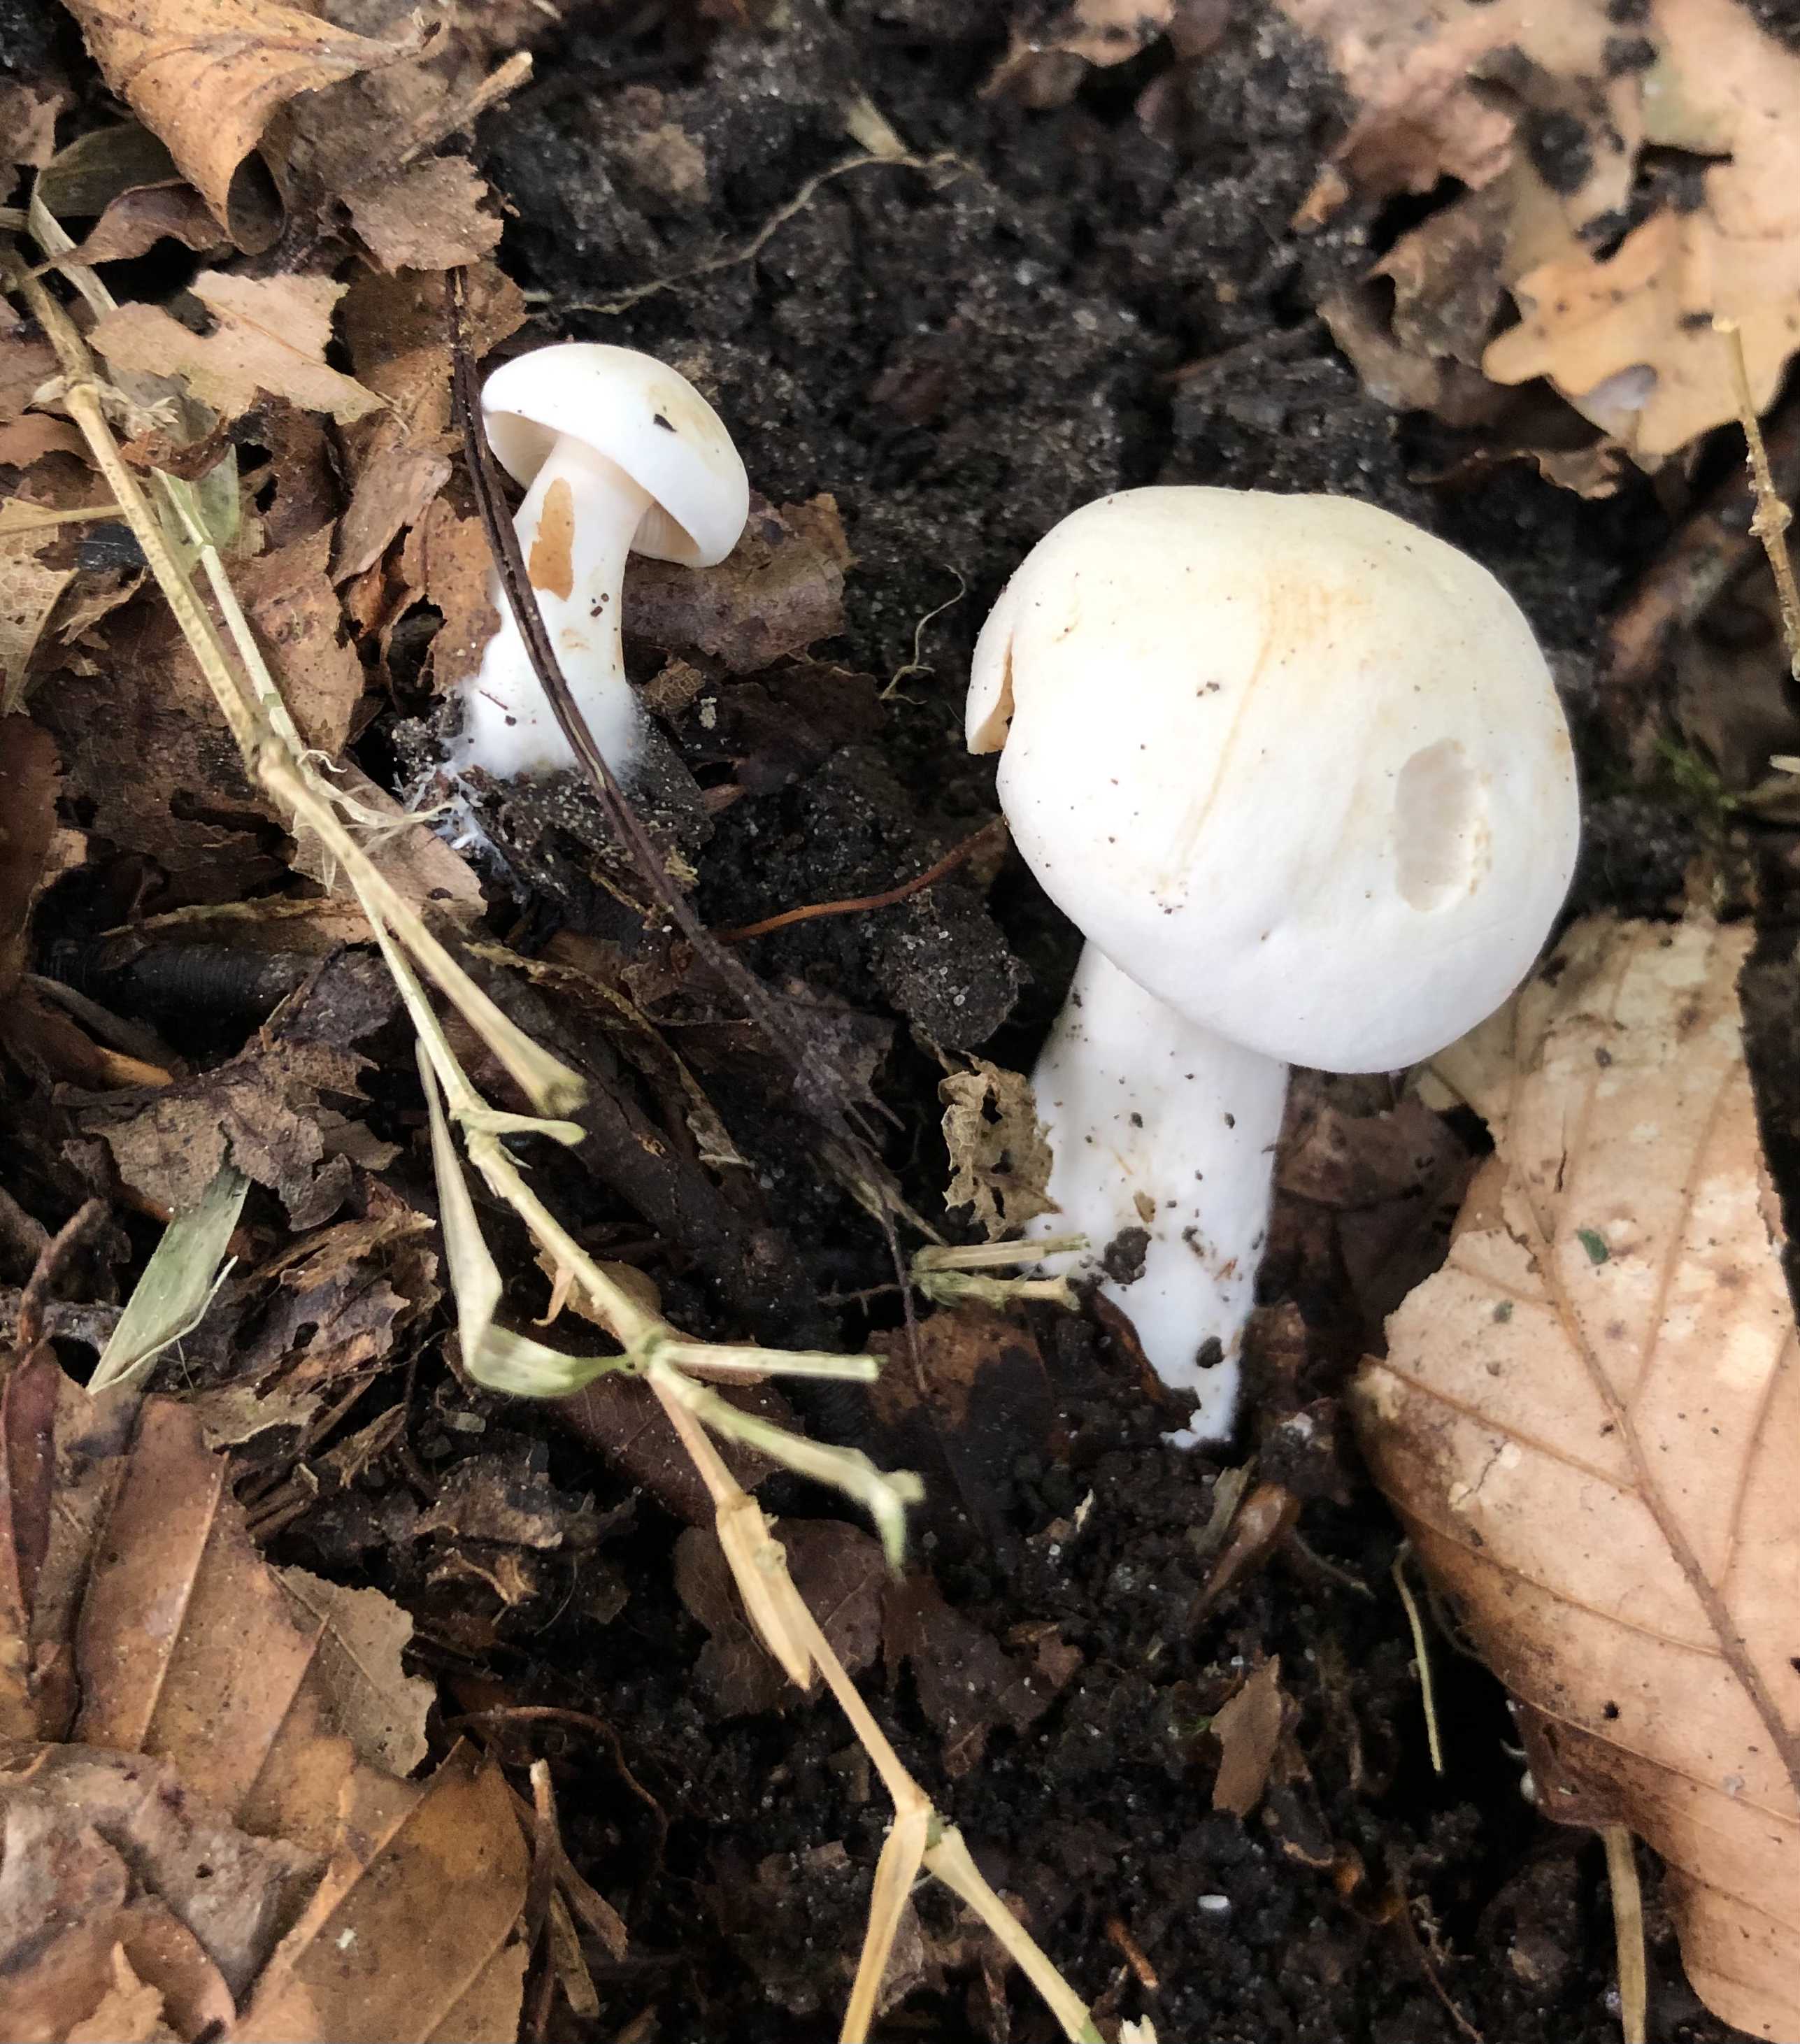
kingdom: Fungi
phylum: Basidiomycota
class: Agaricomycetes
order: Agaricales
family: Tricholomataceae
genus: Tricholoma
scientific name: Tricholoma
